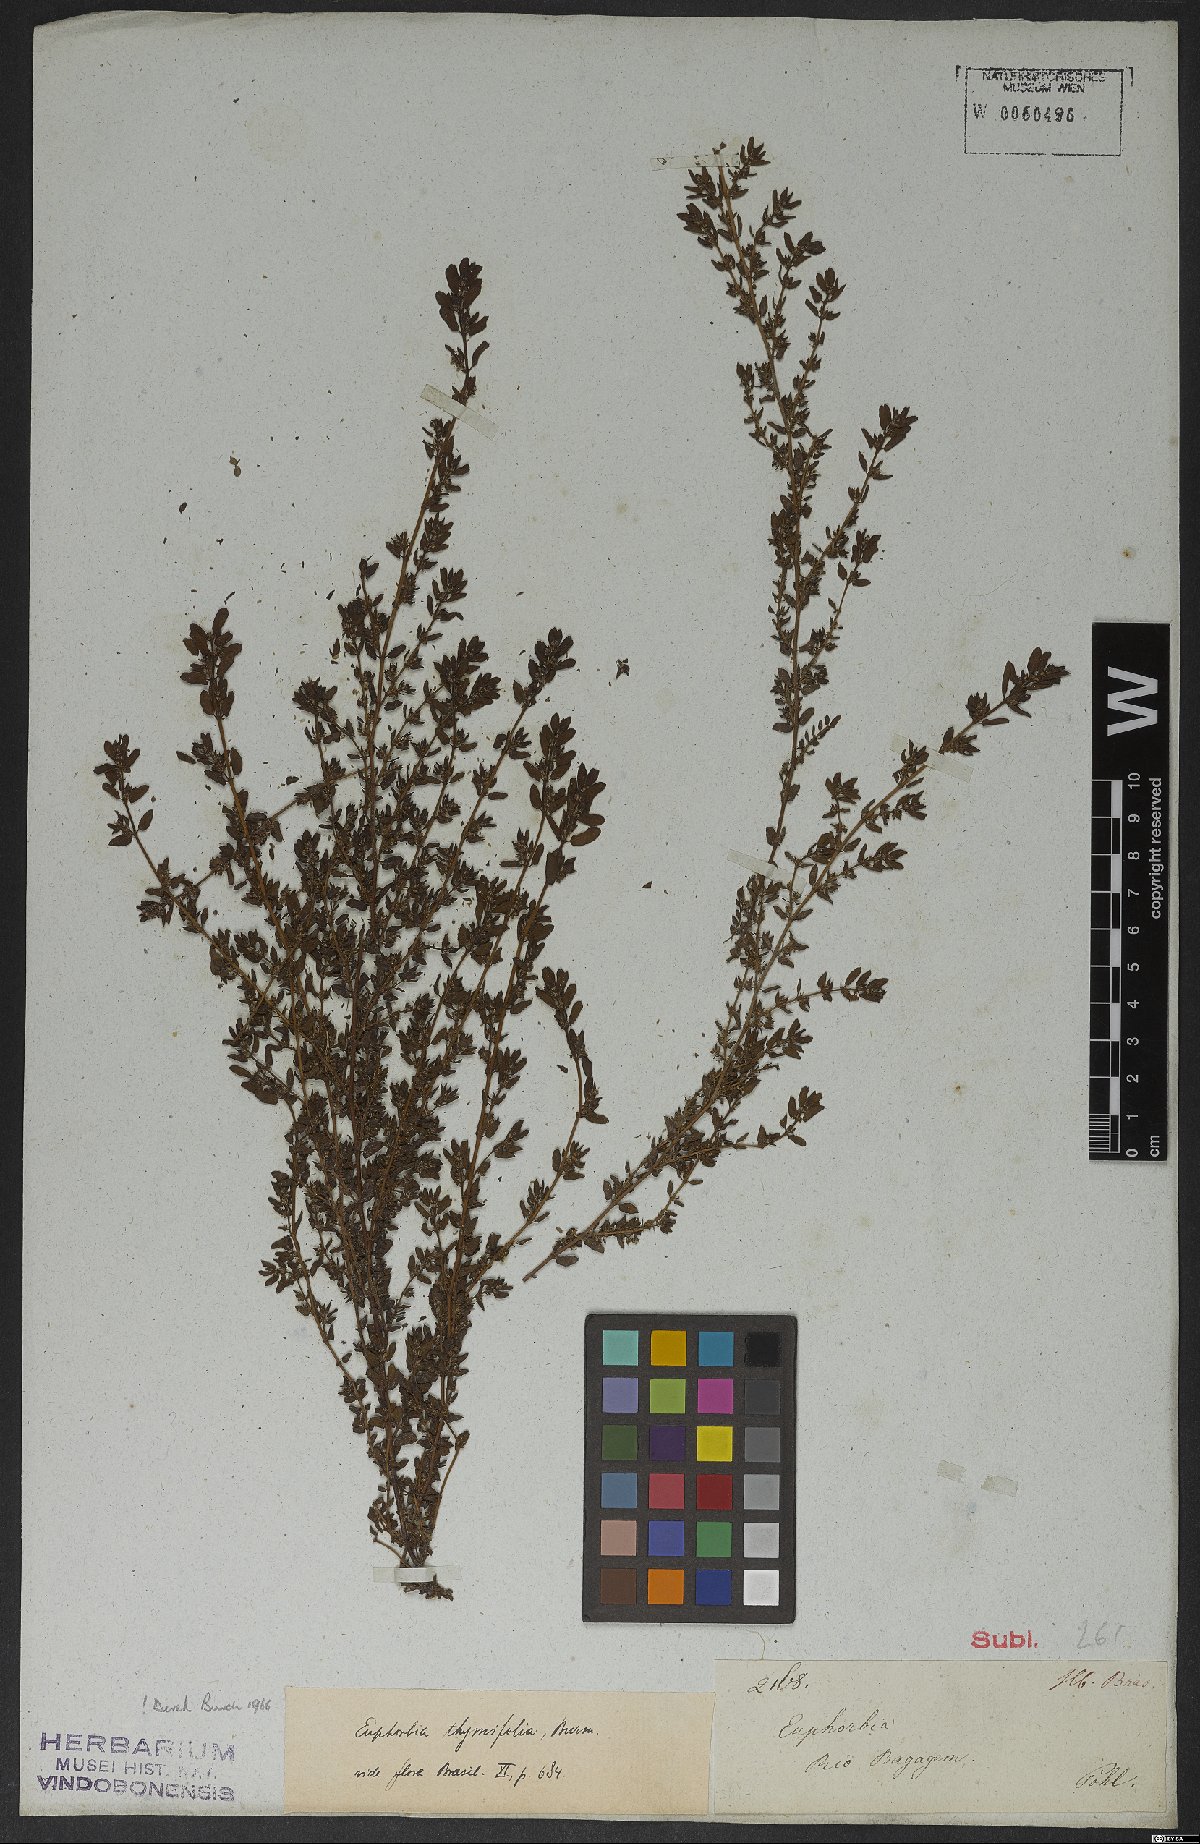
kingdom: Plantae
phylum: Tracheophyta
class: Magnoliopsida
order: Malpighiales
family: Euphorbiaceae
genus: Euphorbia
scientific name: Euphorbia scordiifolia
